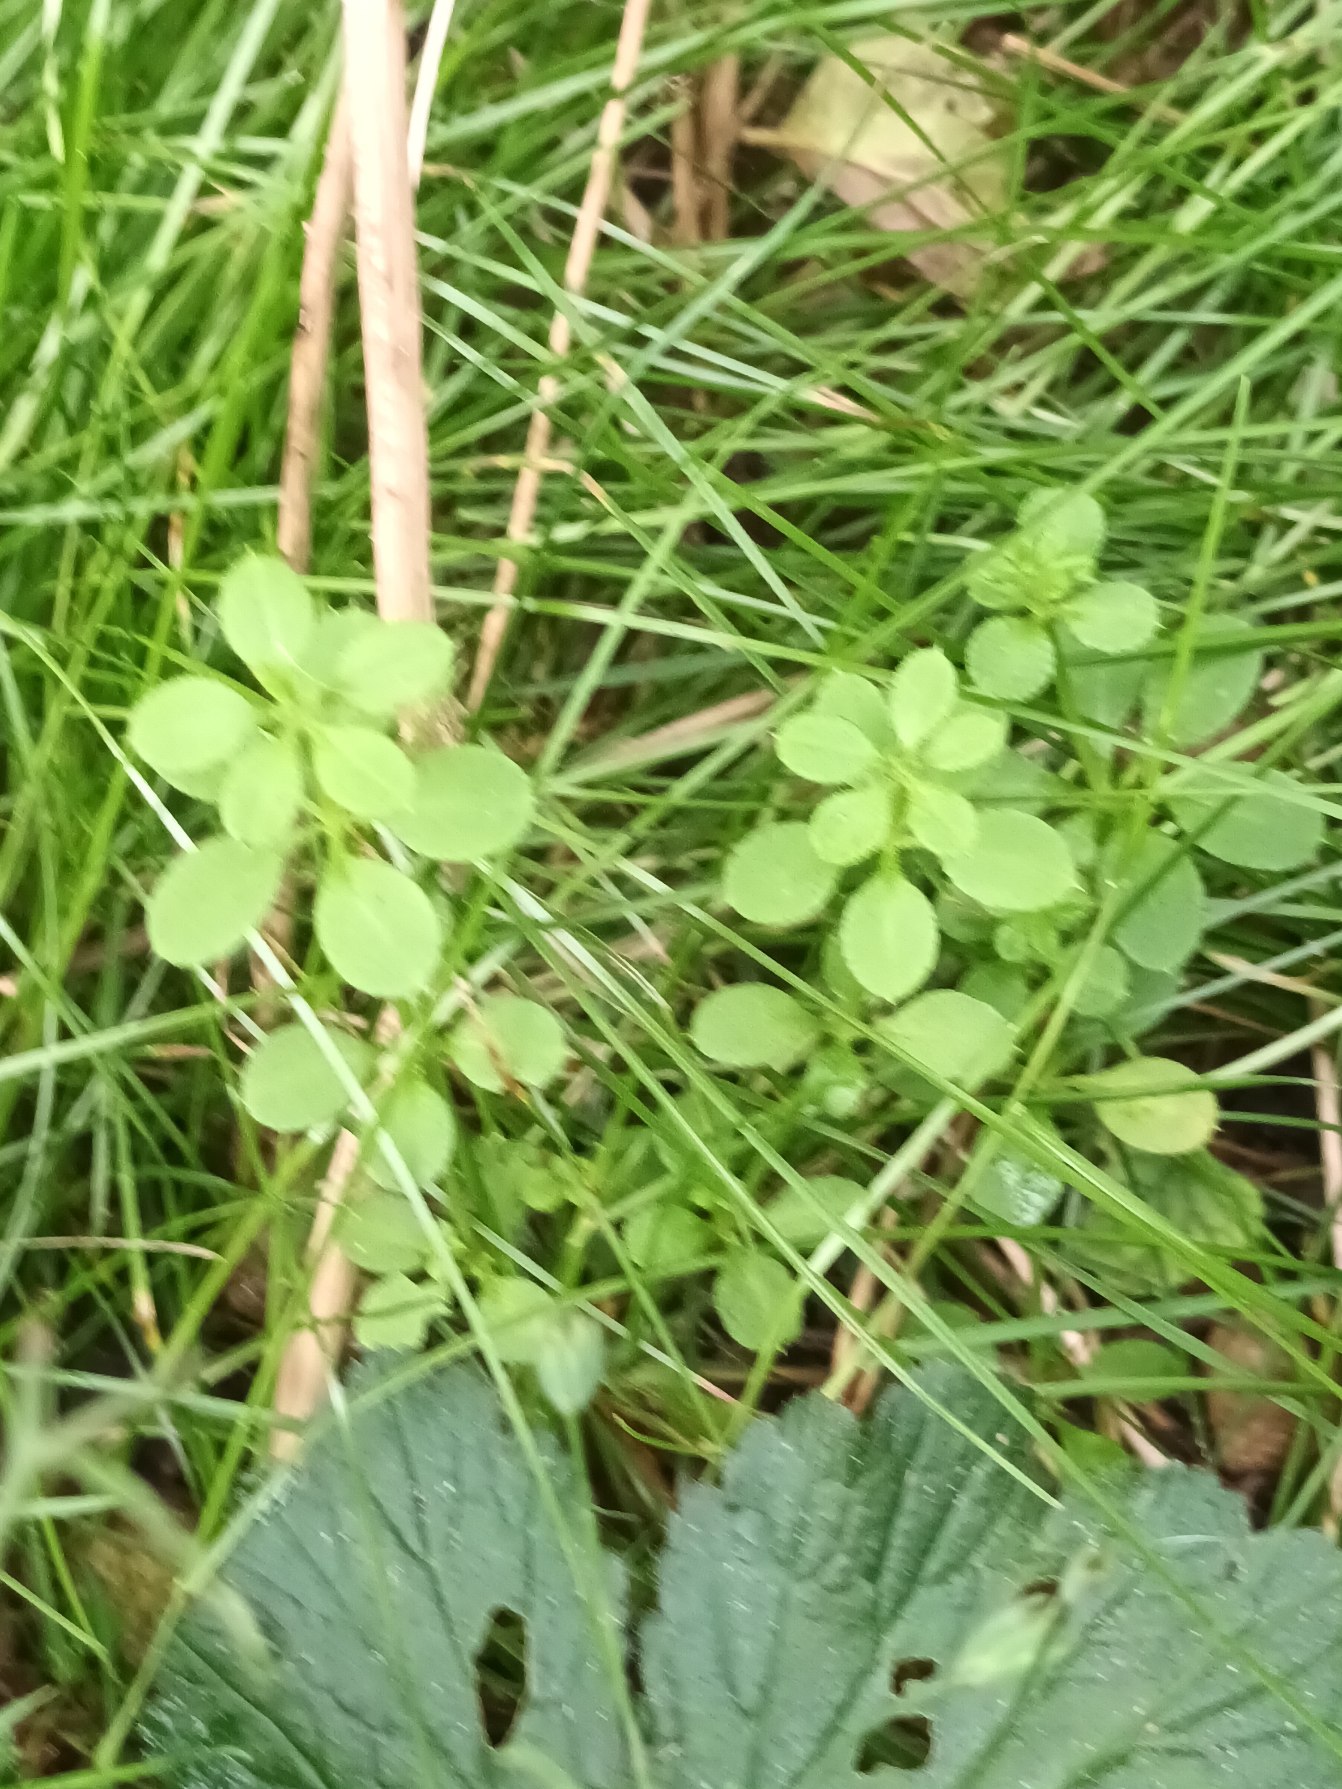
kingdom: Plantae
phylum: Tracheophyta
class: Magnoliopsida
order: Gentianales
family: Rubiaceae
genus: Galium
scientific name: Galium aparine
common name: Burre-snerre
